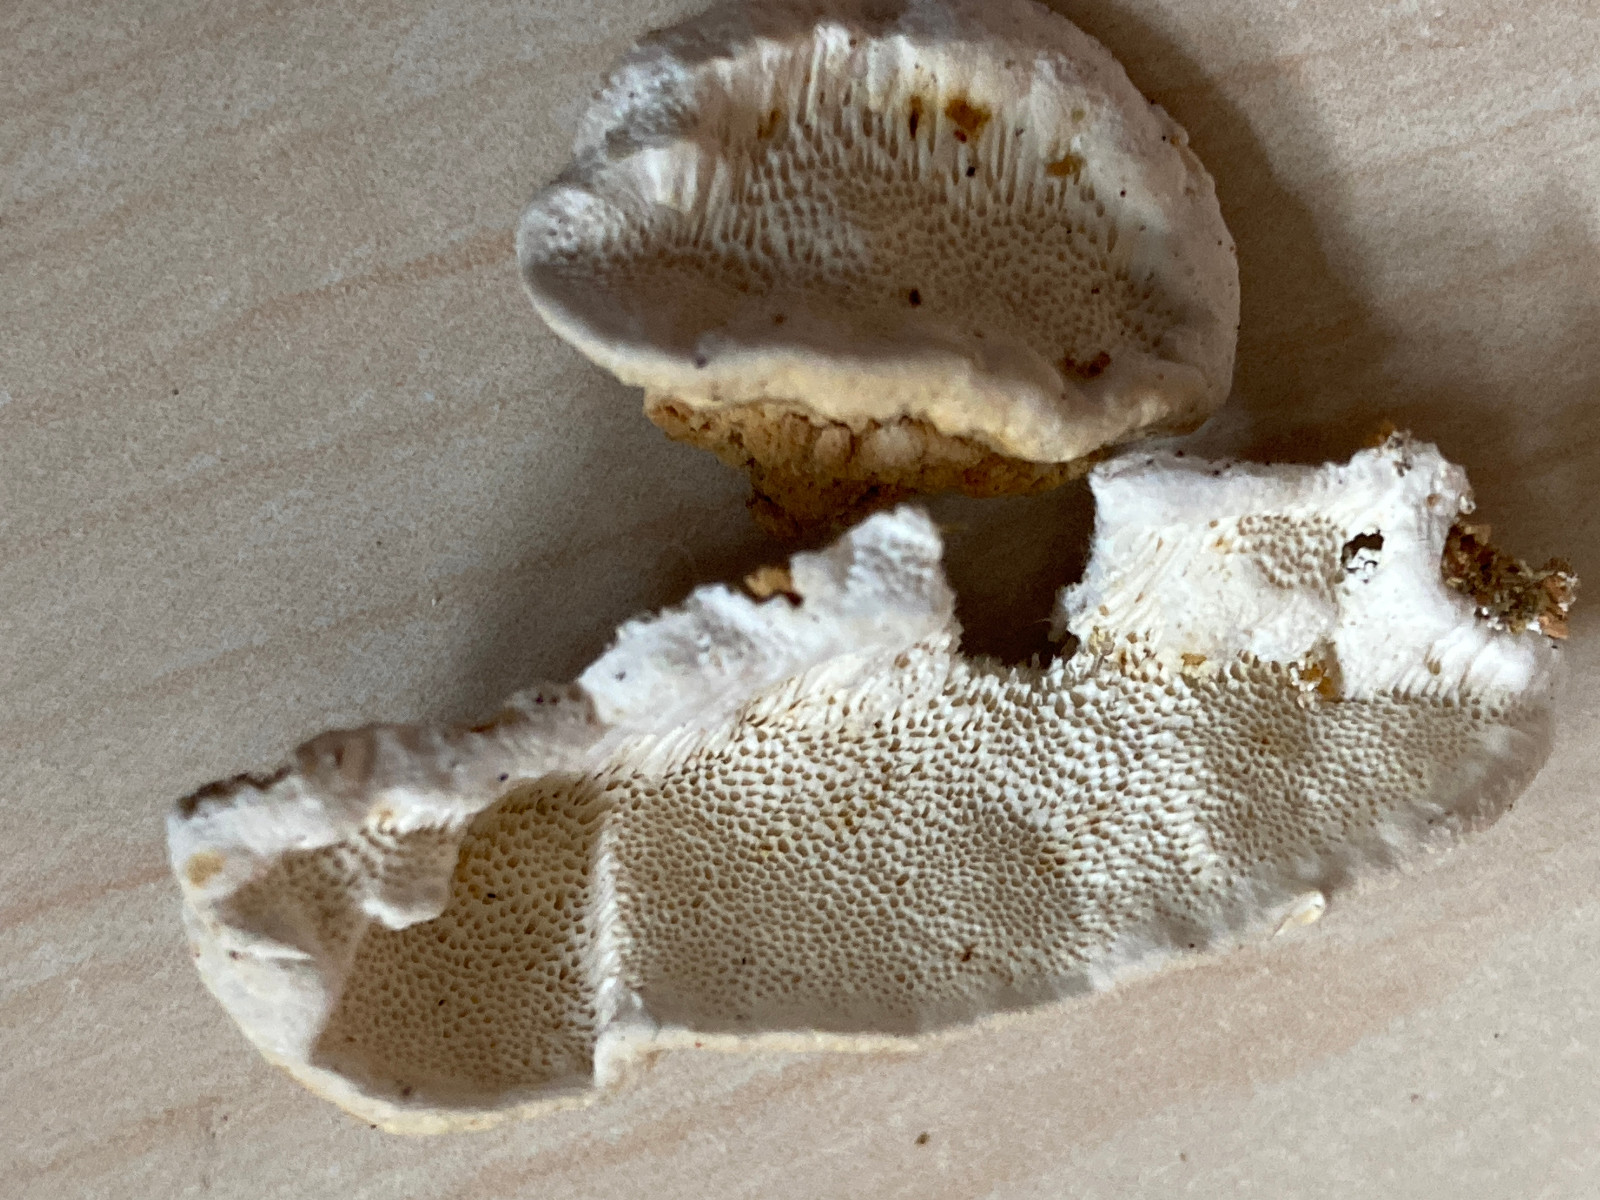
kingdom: Fungi
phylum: Basidiomycota
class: Agaricomycetes
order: Polyporales
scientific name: Polyporales
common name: poresvampordenen
